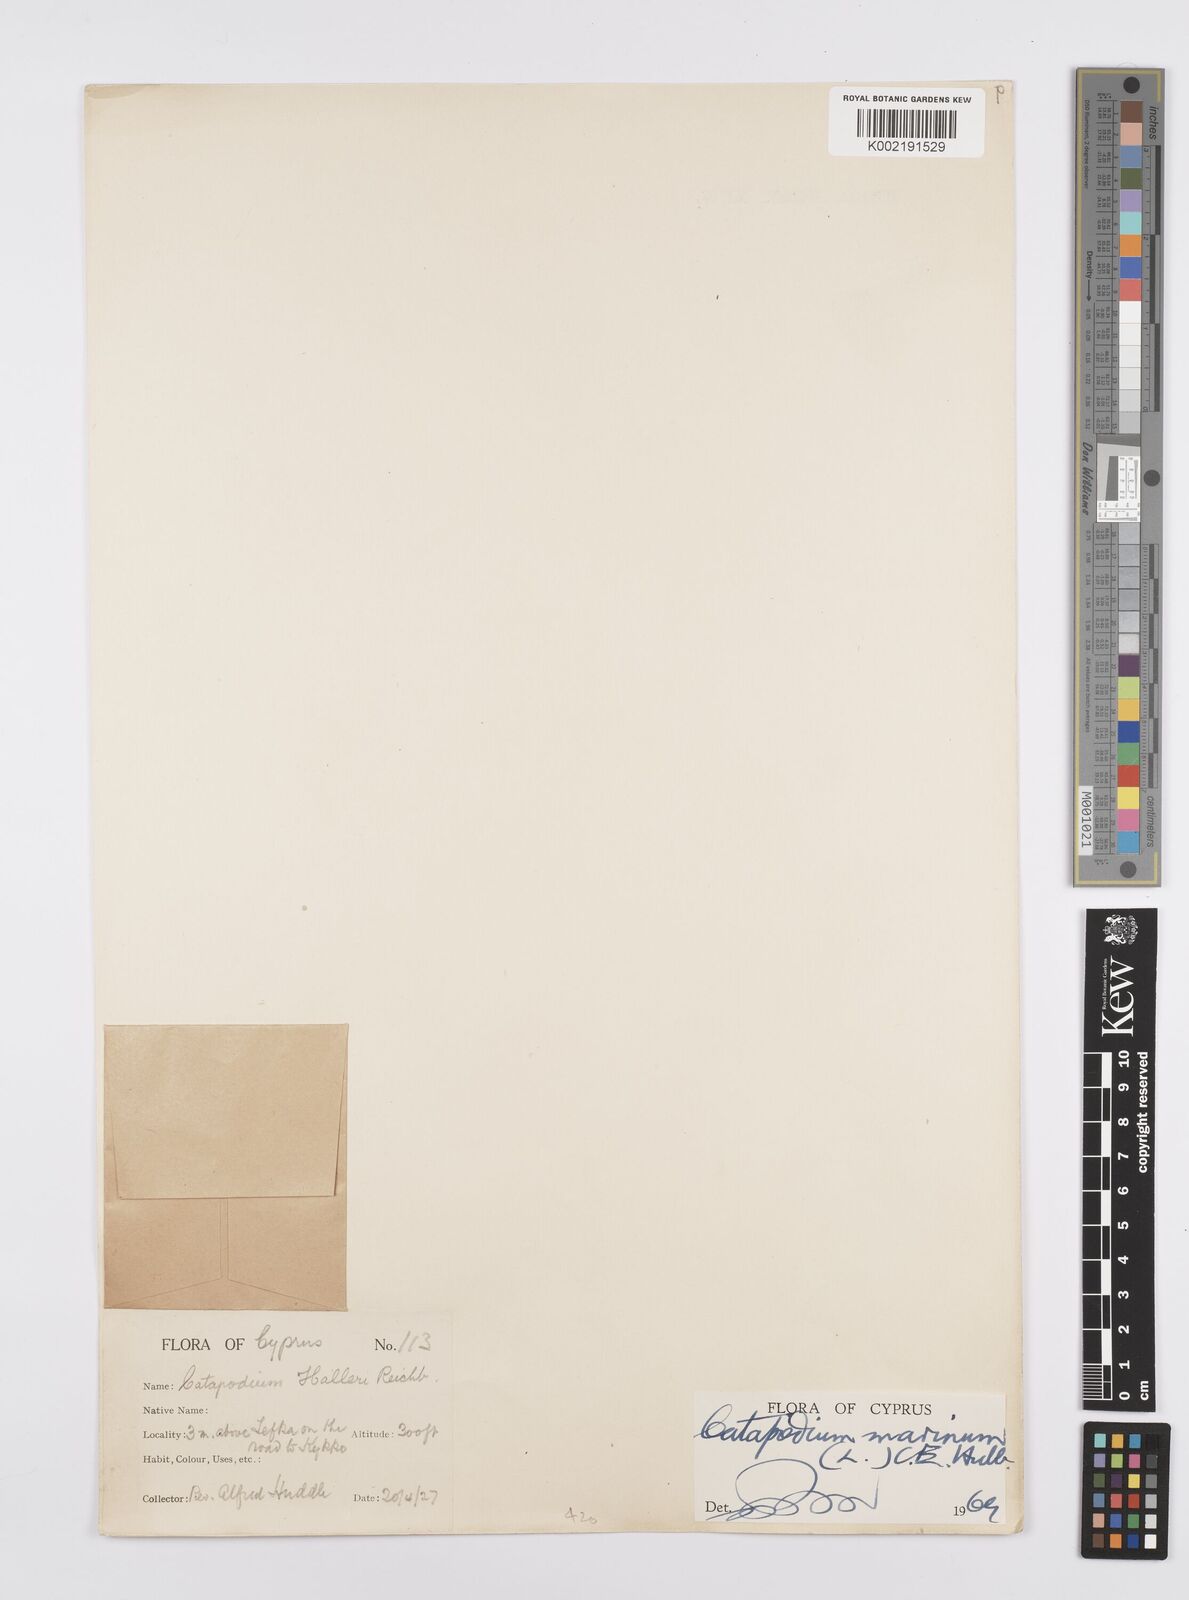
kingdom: Plantae
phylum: Tracheophyta
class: Liliopsida
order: Poales
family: Poaceae
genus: Catapodium
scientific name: Catapodium marinum
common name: Sea fern-grass
